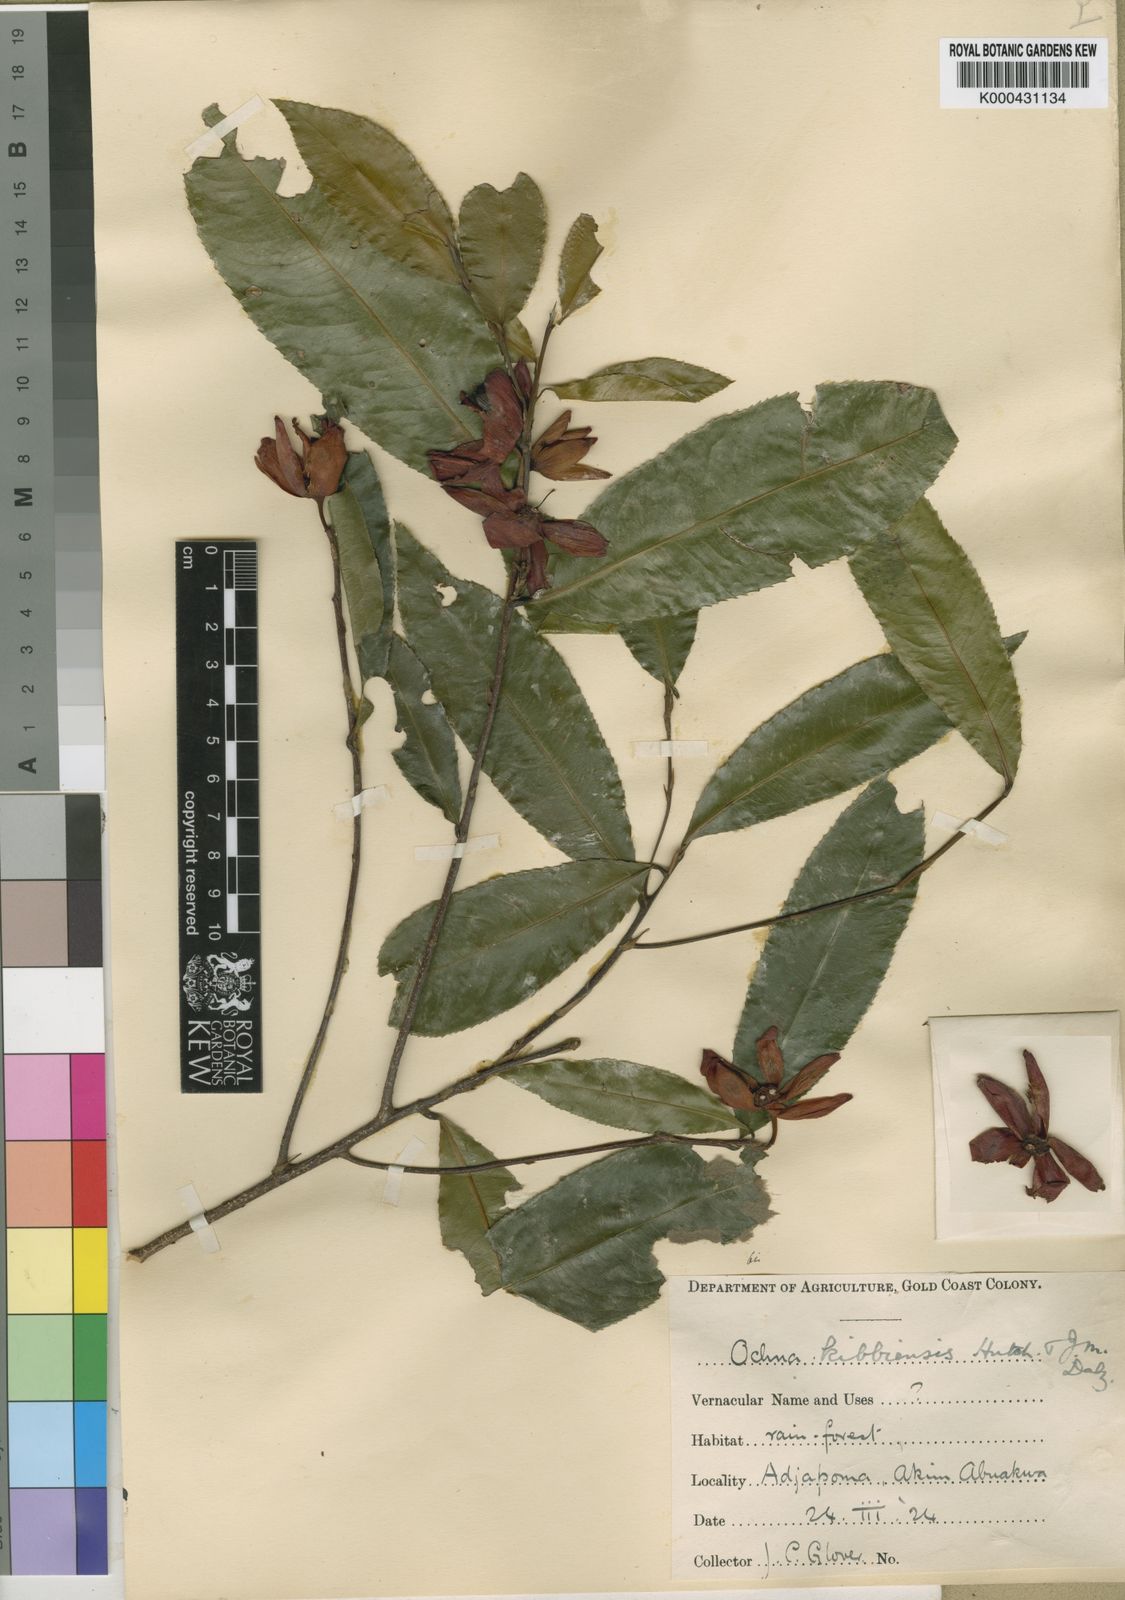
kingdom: Plantae
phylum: Tracheophyta
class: Magnoliopsida
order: Malpighiales
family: Ochnaceae
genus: Ochna
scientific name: Ochna kibbiensis
